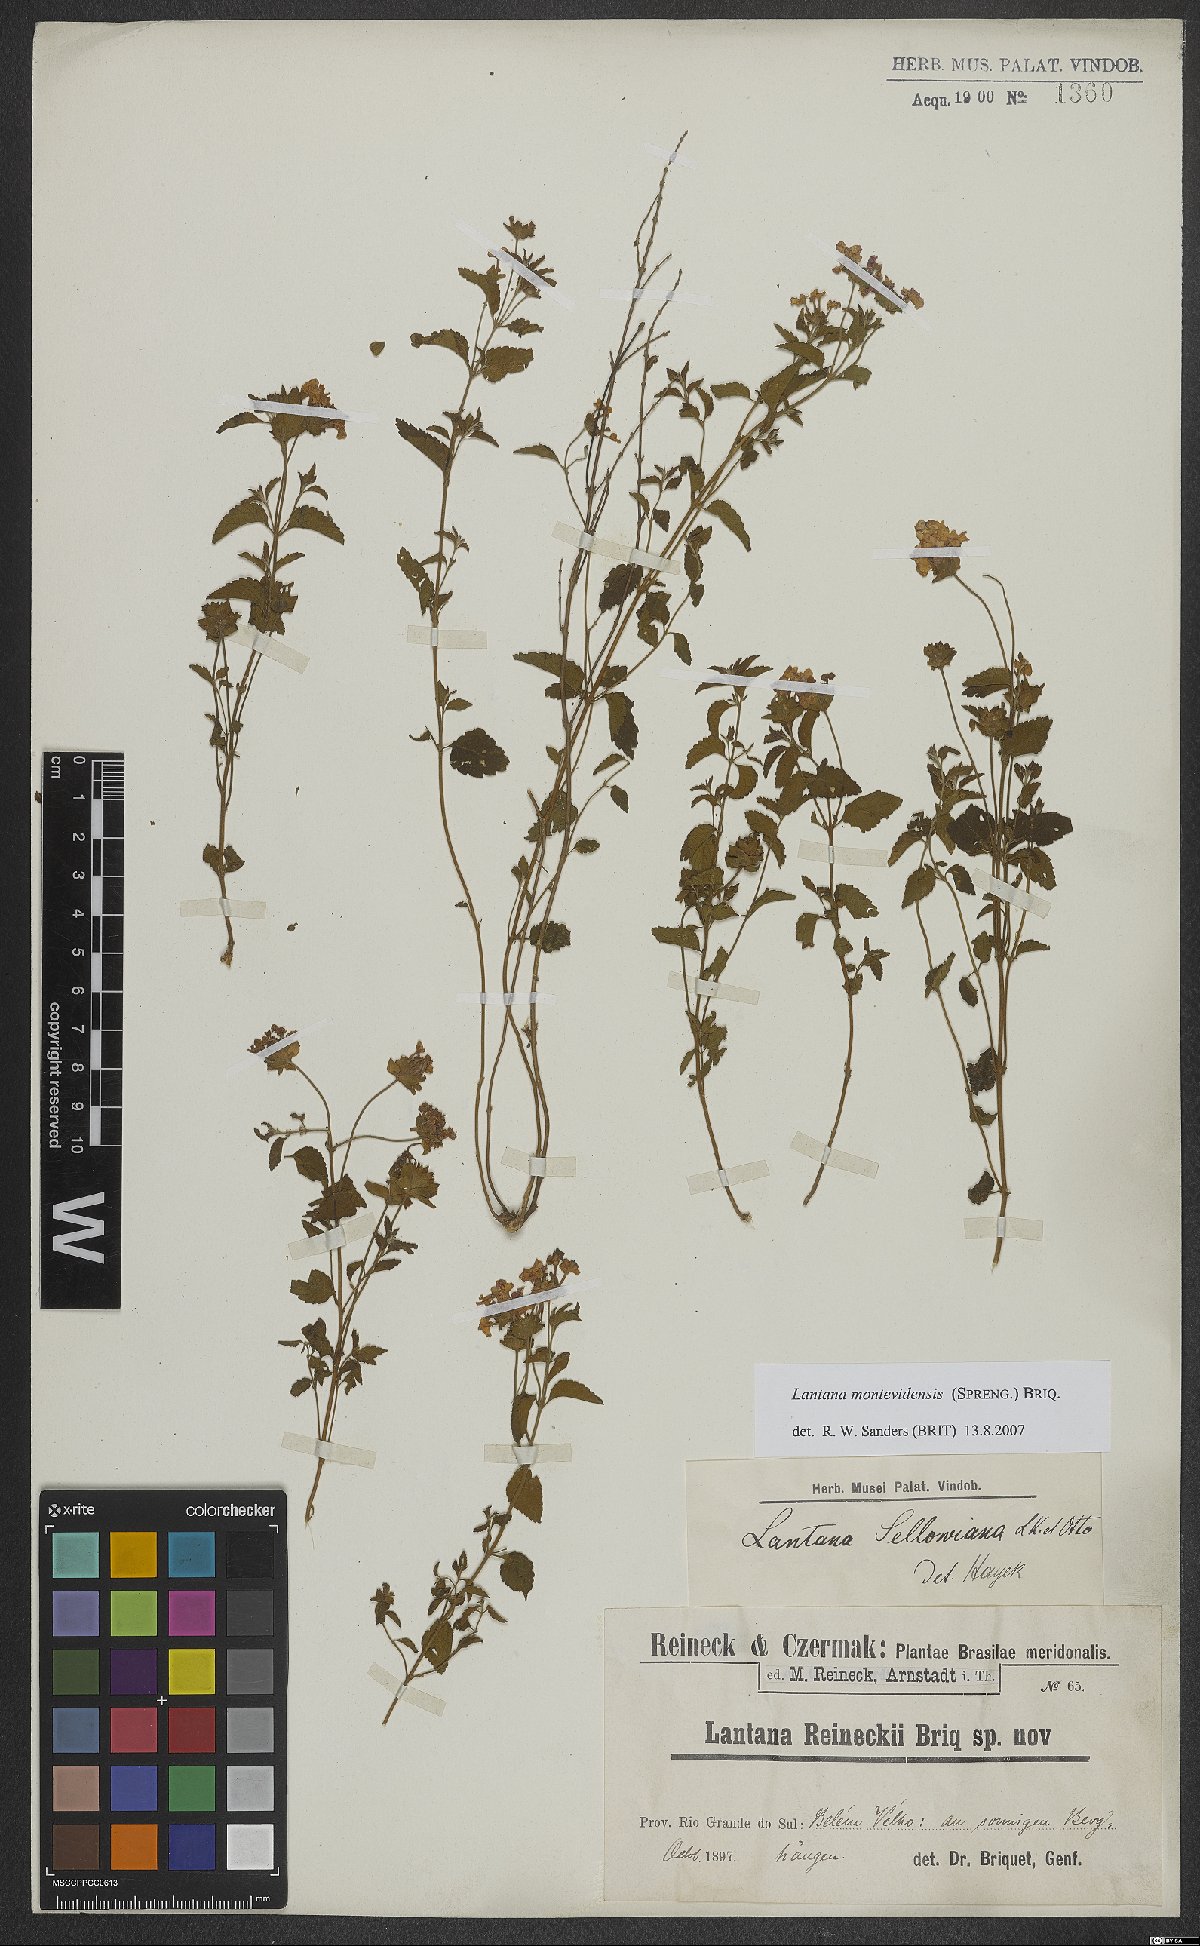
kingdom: Plantae
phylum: Tracheophyta
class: Magnoliopsida
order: Lamiales
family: Verbenaceae
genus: Lantana
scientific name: Lantana montevidensis
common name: Trailing shrubverbena
